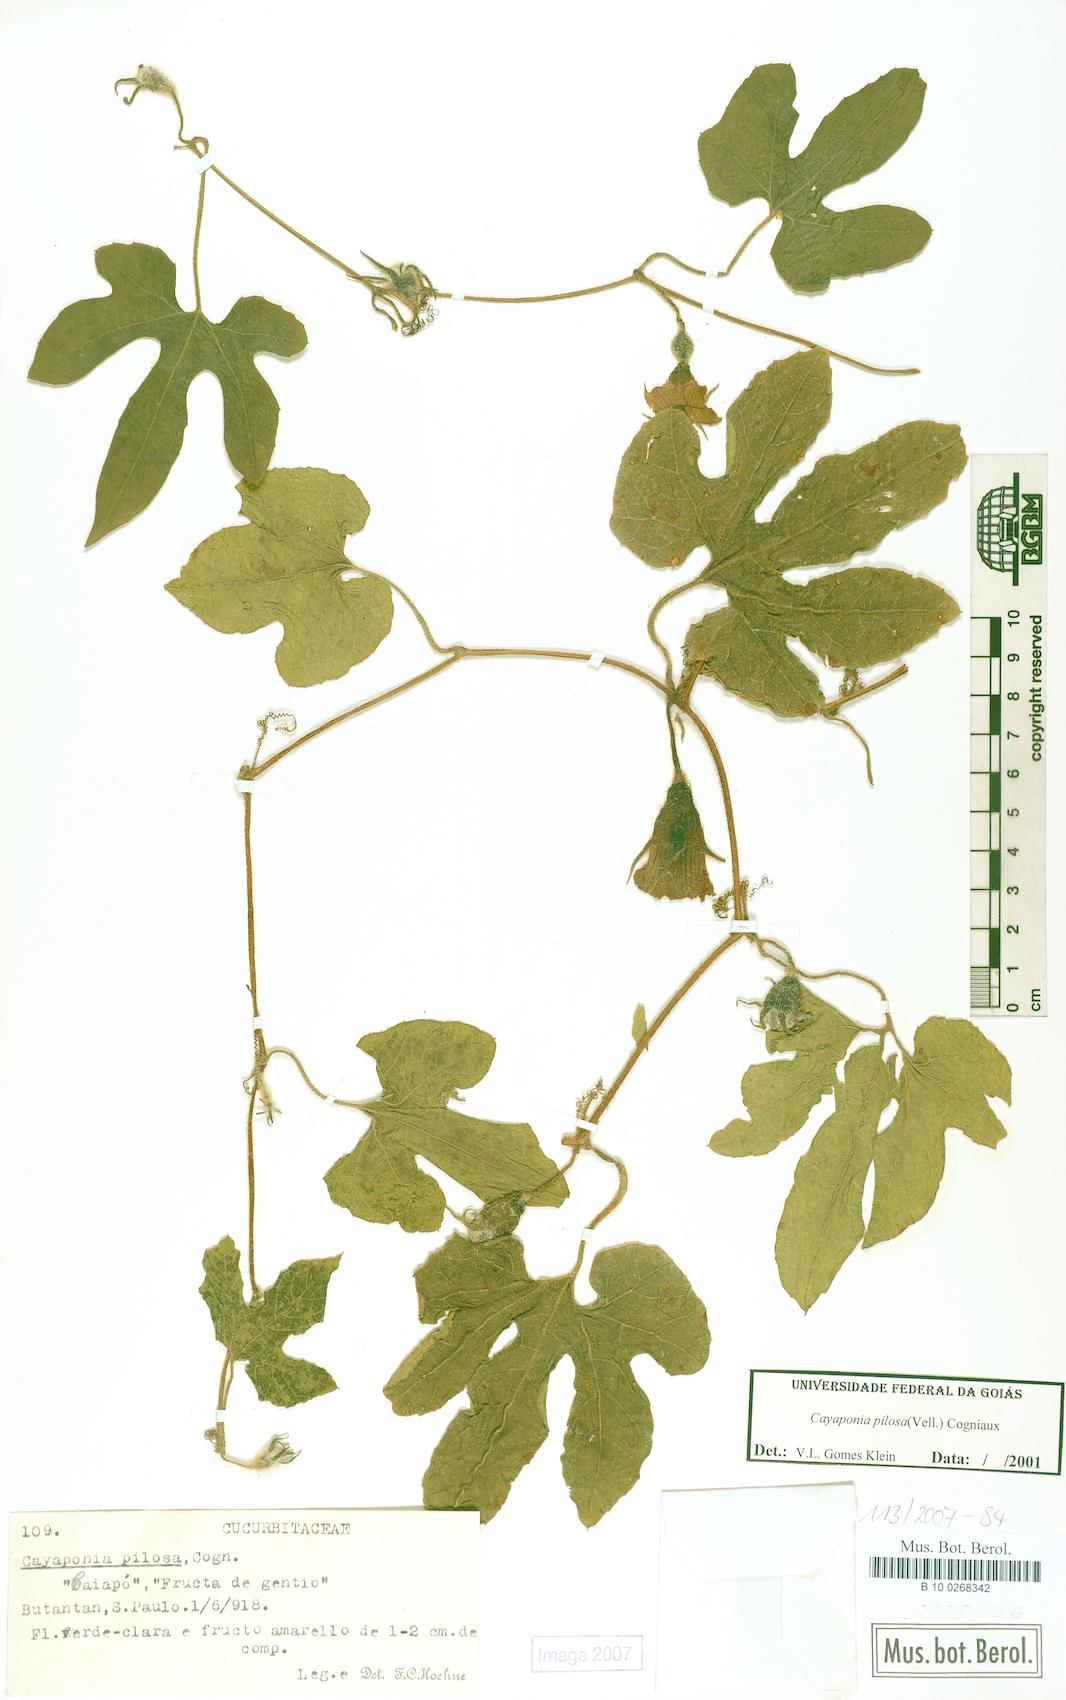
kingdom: Plantae
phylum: Tracheophyta
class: Magnoliopsida
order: Cucurbitales
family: Cucurbitaceae
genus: Cayaponia
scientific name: Cayaponia pilosa
